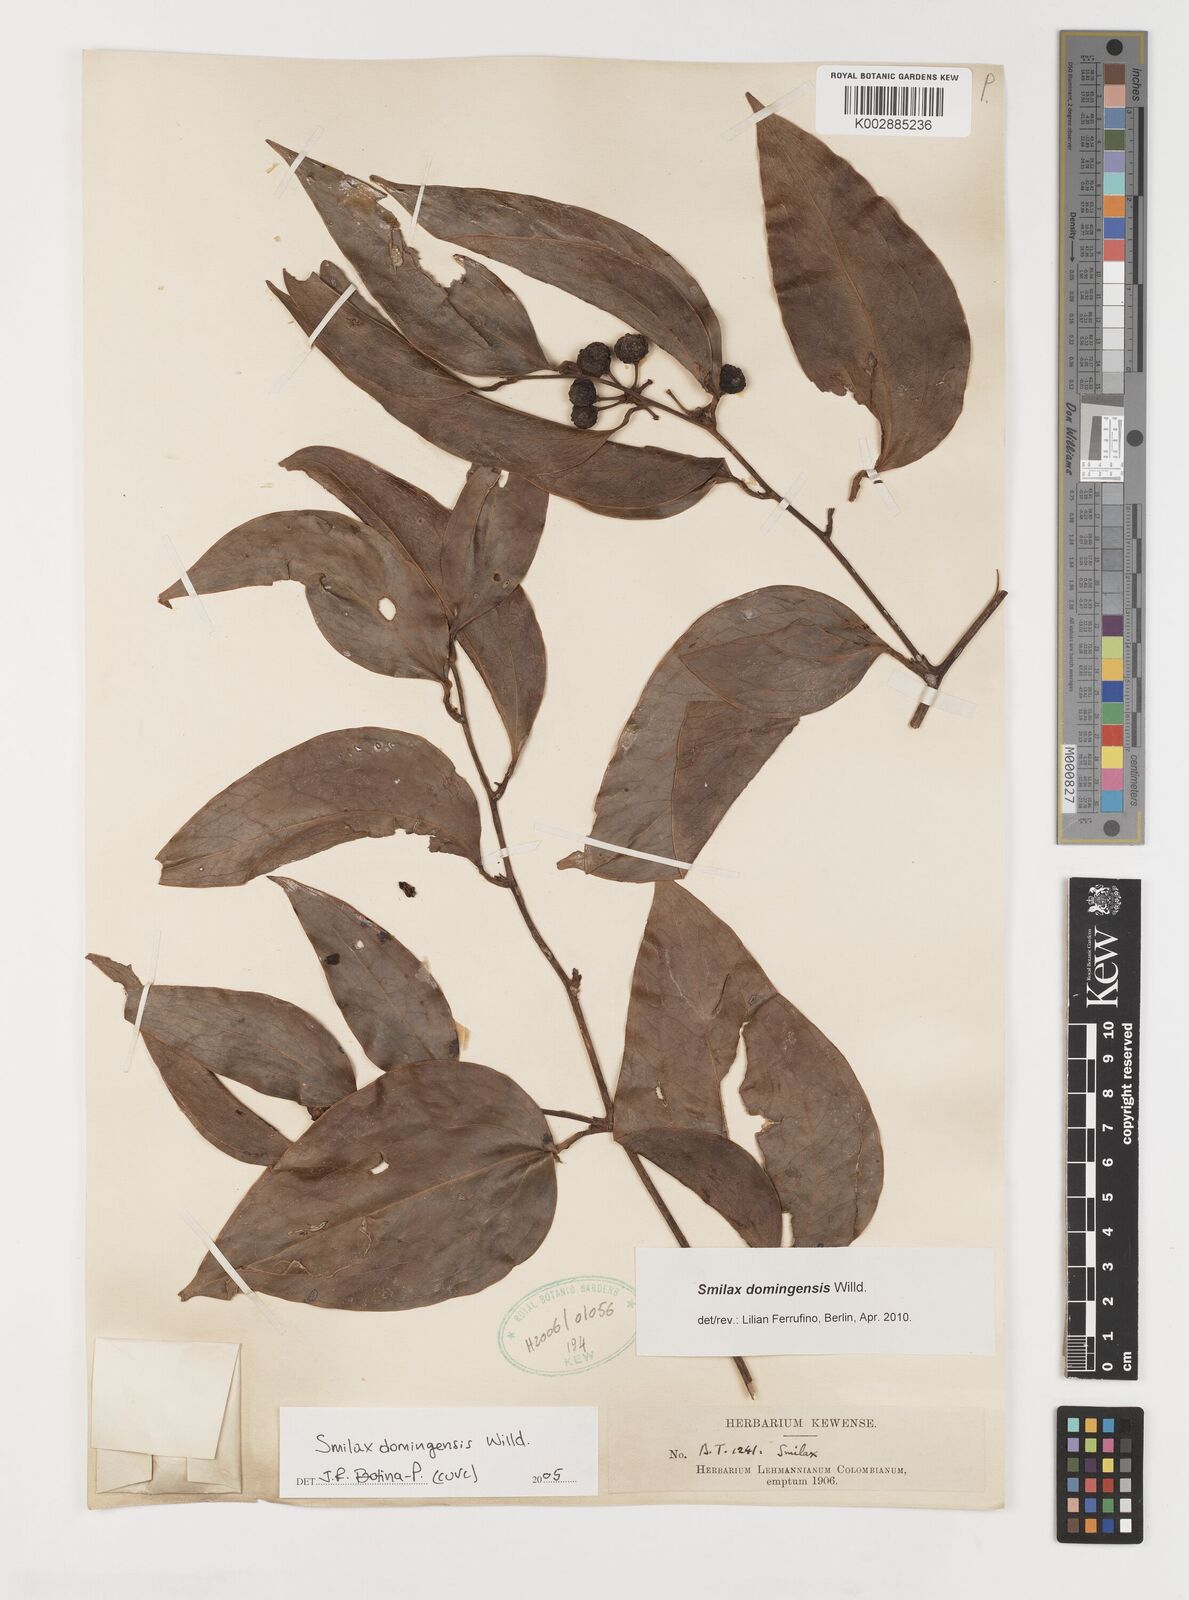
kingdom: Plantae
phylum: Tracheophyta
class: Liliopsida
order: Liliales
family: Smilacaceae
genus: Smilax
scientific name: Smilax domingensis
